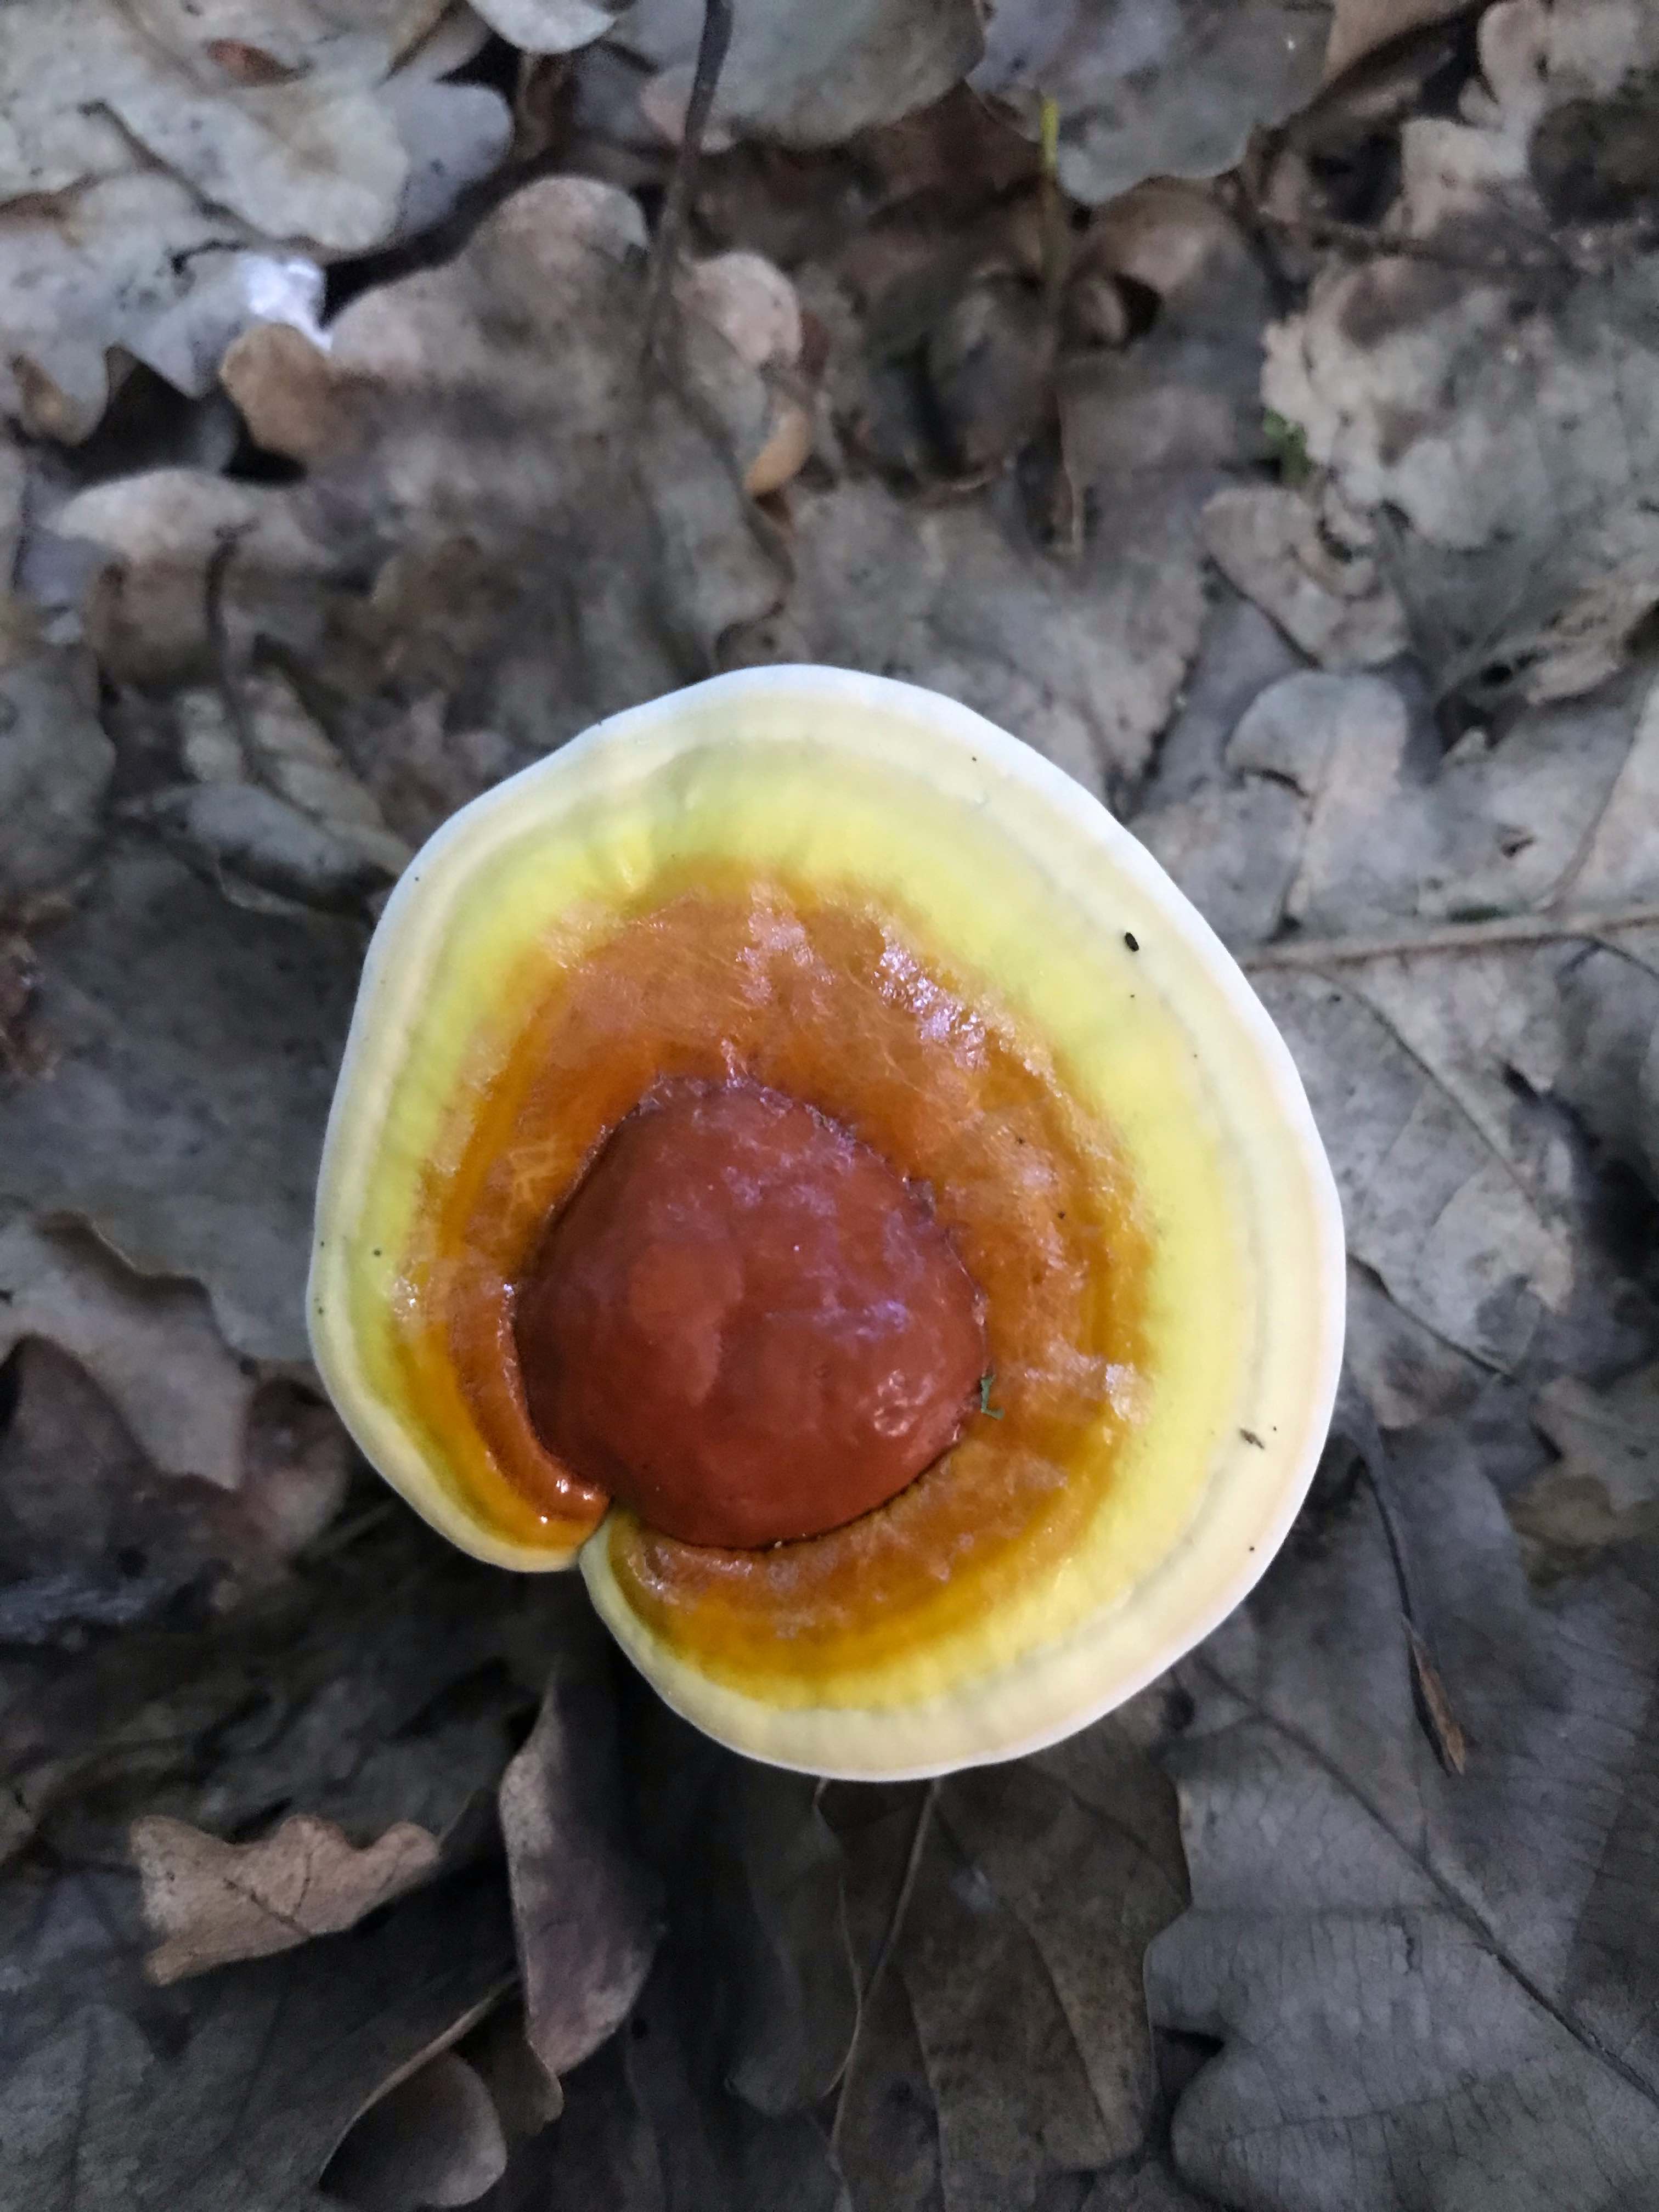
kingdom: Fungi
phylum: Basidiomycota
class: Agaricomycetes
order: Polyporales
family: Polyporaceae
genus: Ganoderma
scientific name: Ganoderma lucidum
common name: skinnende lakporesvamp
